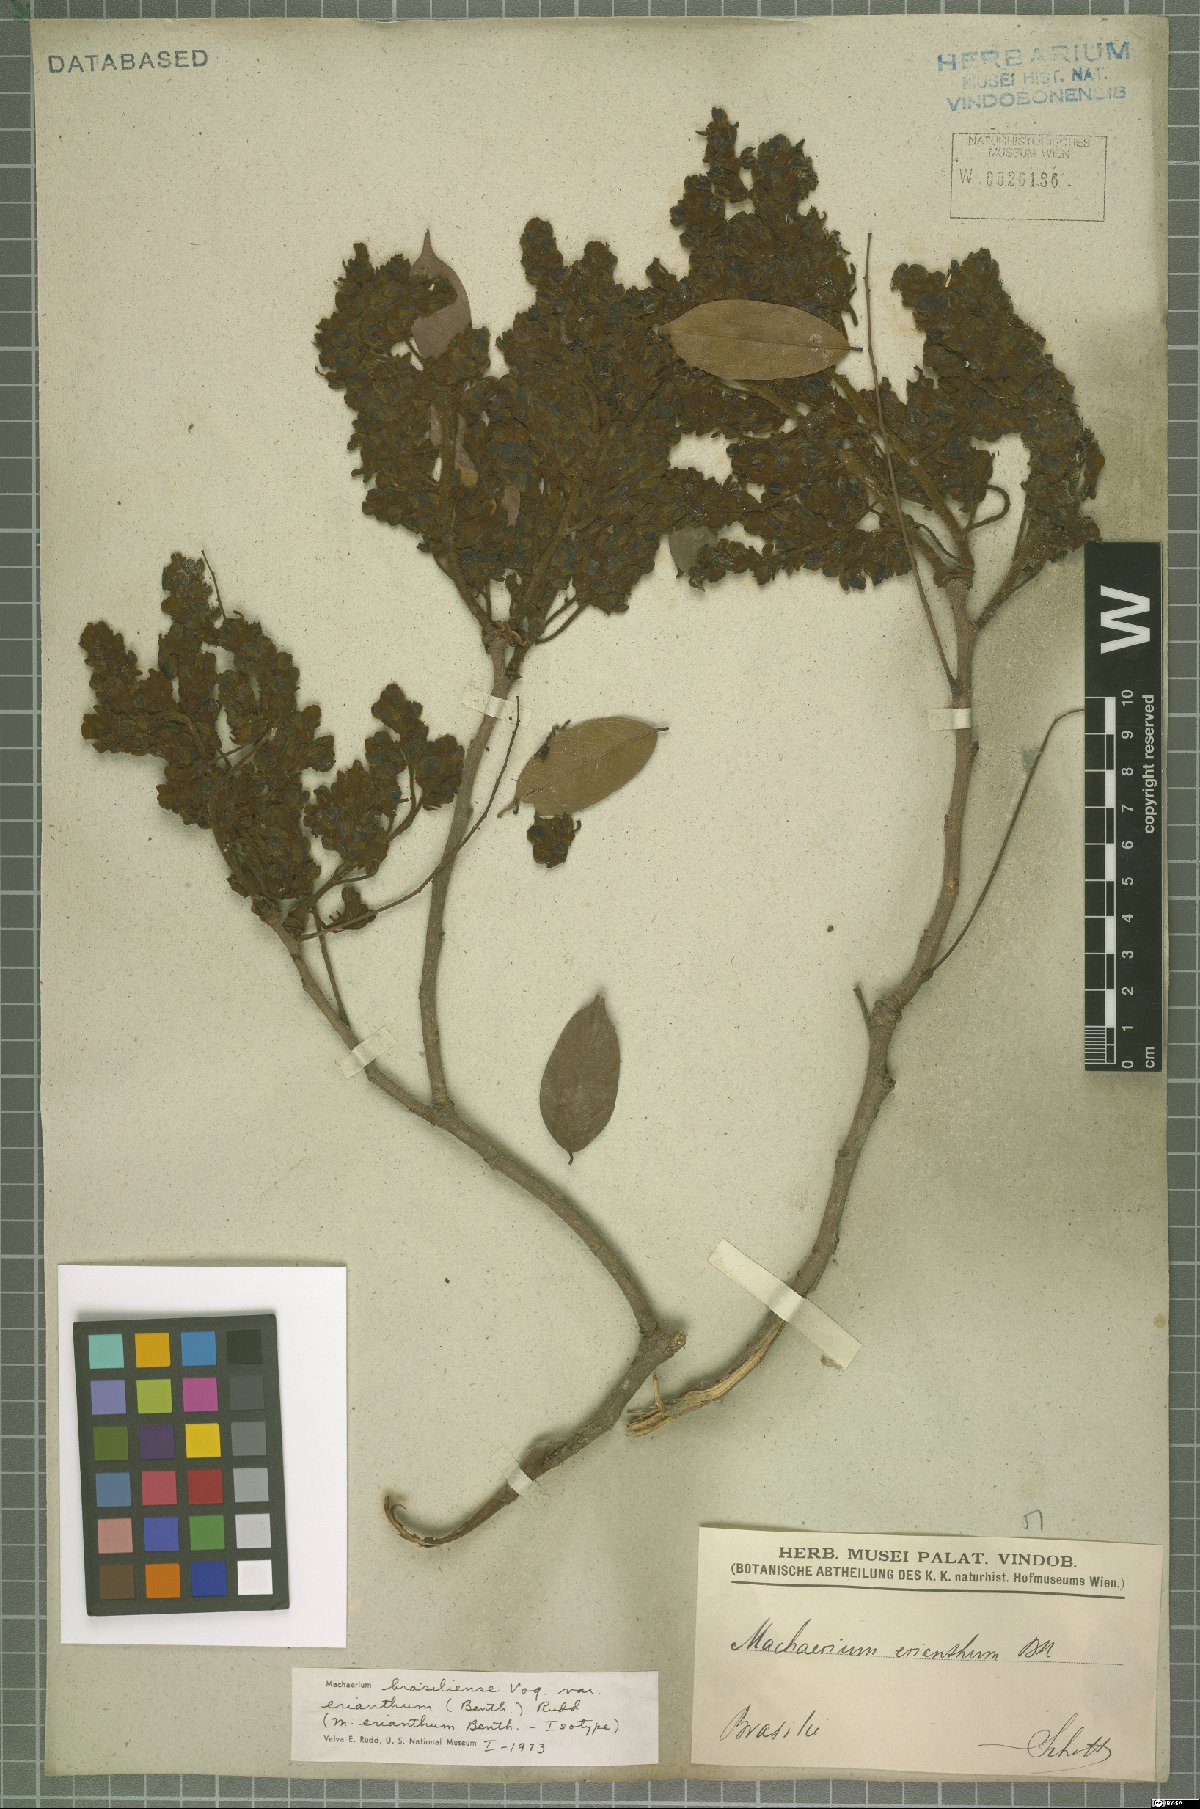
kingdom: Plantae
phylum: Tracheophyta
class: Magnoliopsida
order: Fabales
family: Fabaceae
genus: Machaerium
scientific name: Machaerium brasiliense
